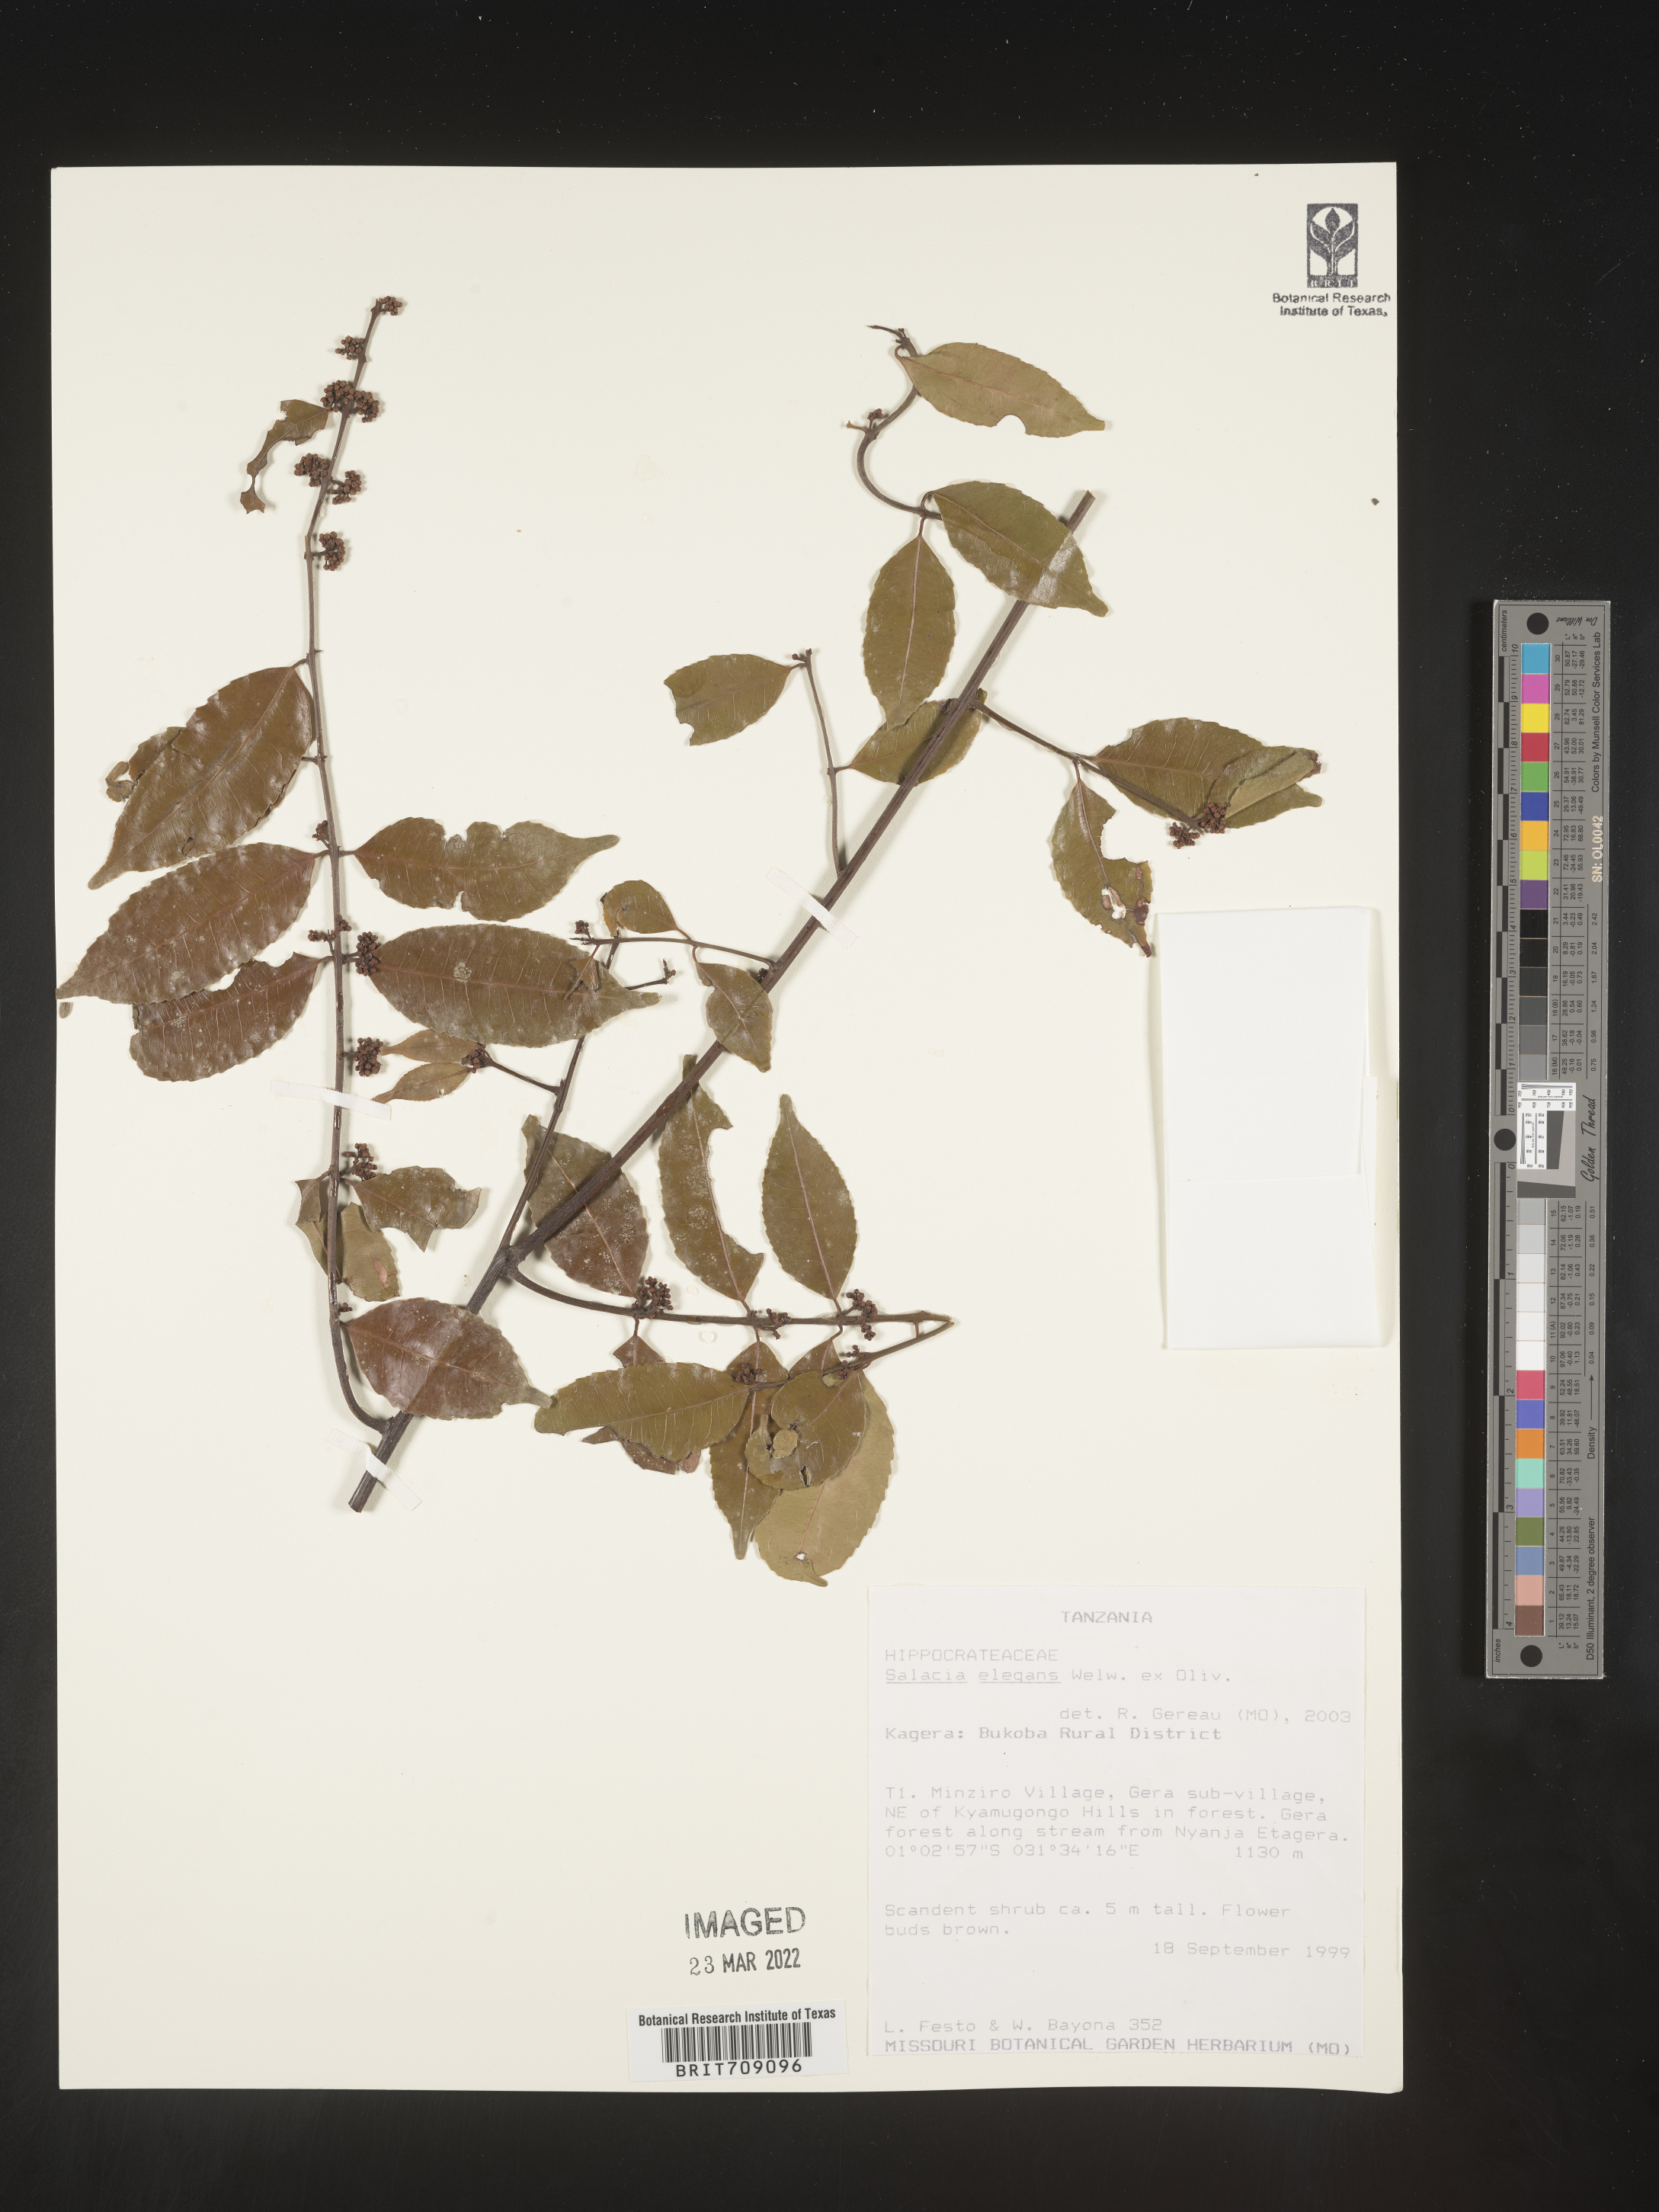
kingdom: Plantae
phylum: Tracheophyta
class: Magnoliopsida
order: Celastrales
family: Celastraceae
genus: Salacia
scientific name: Salacia
